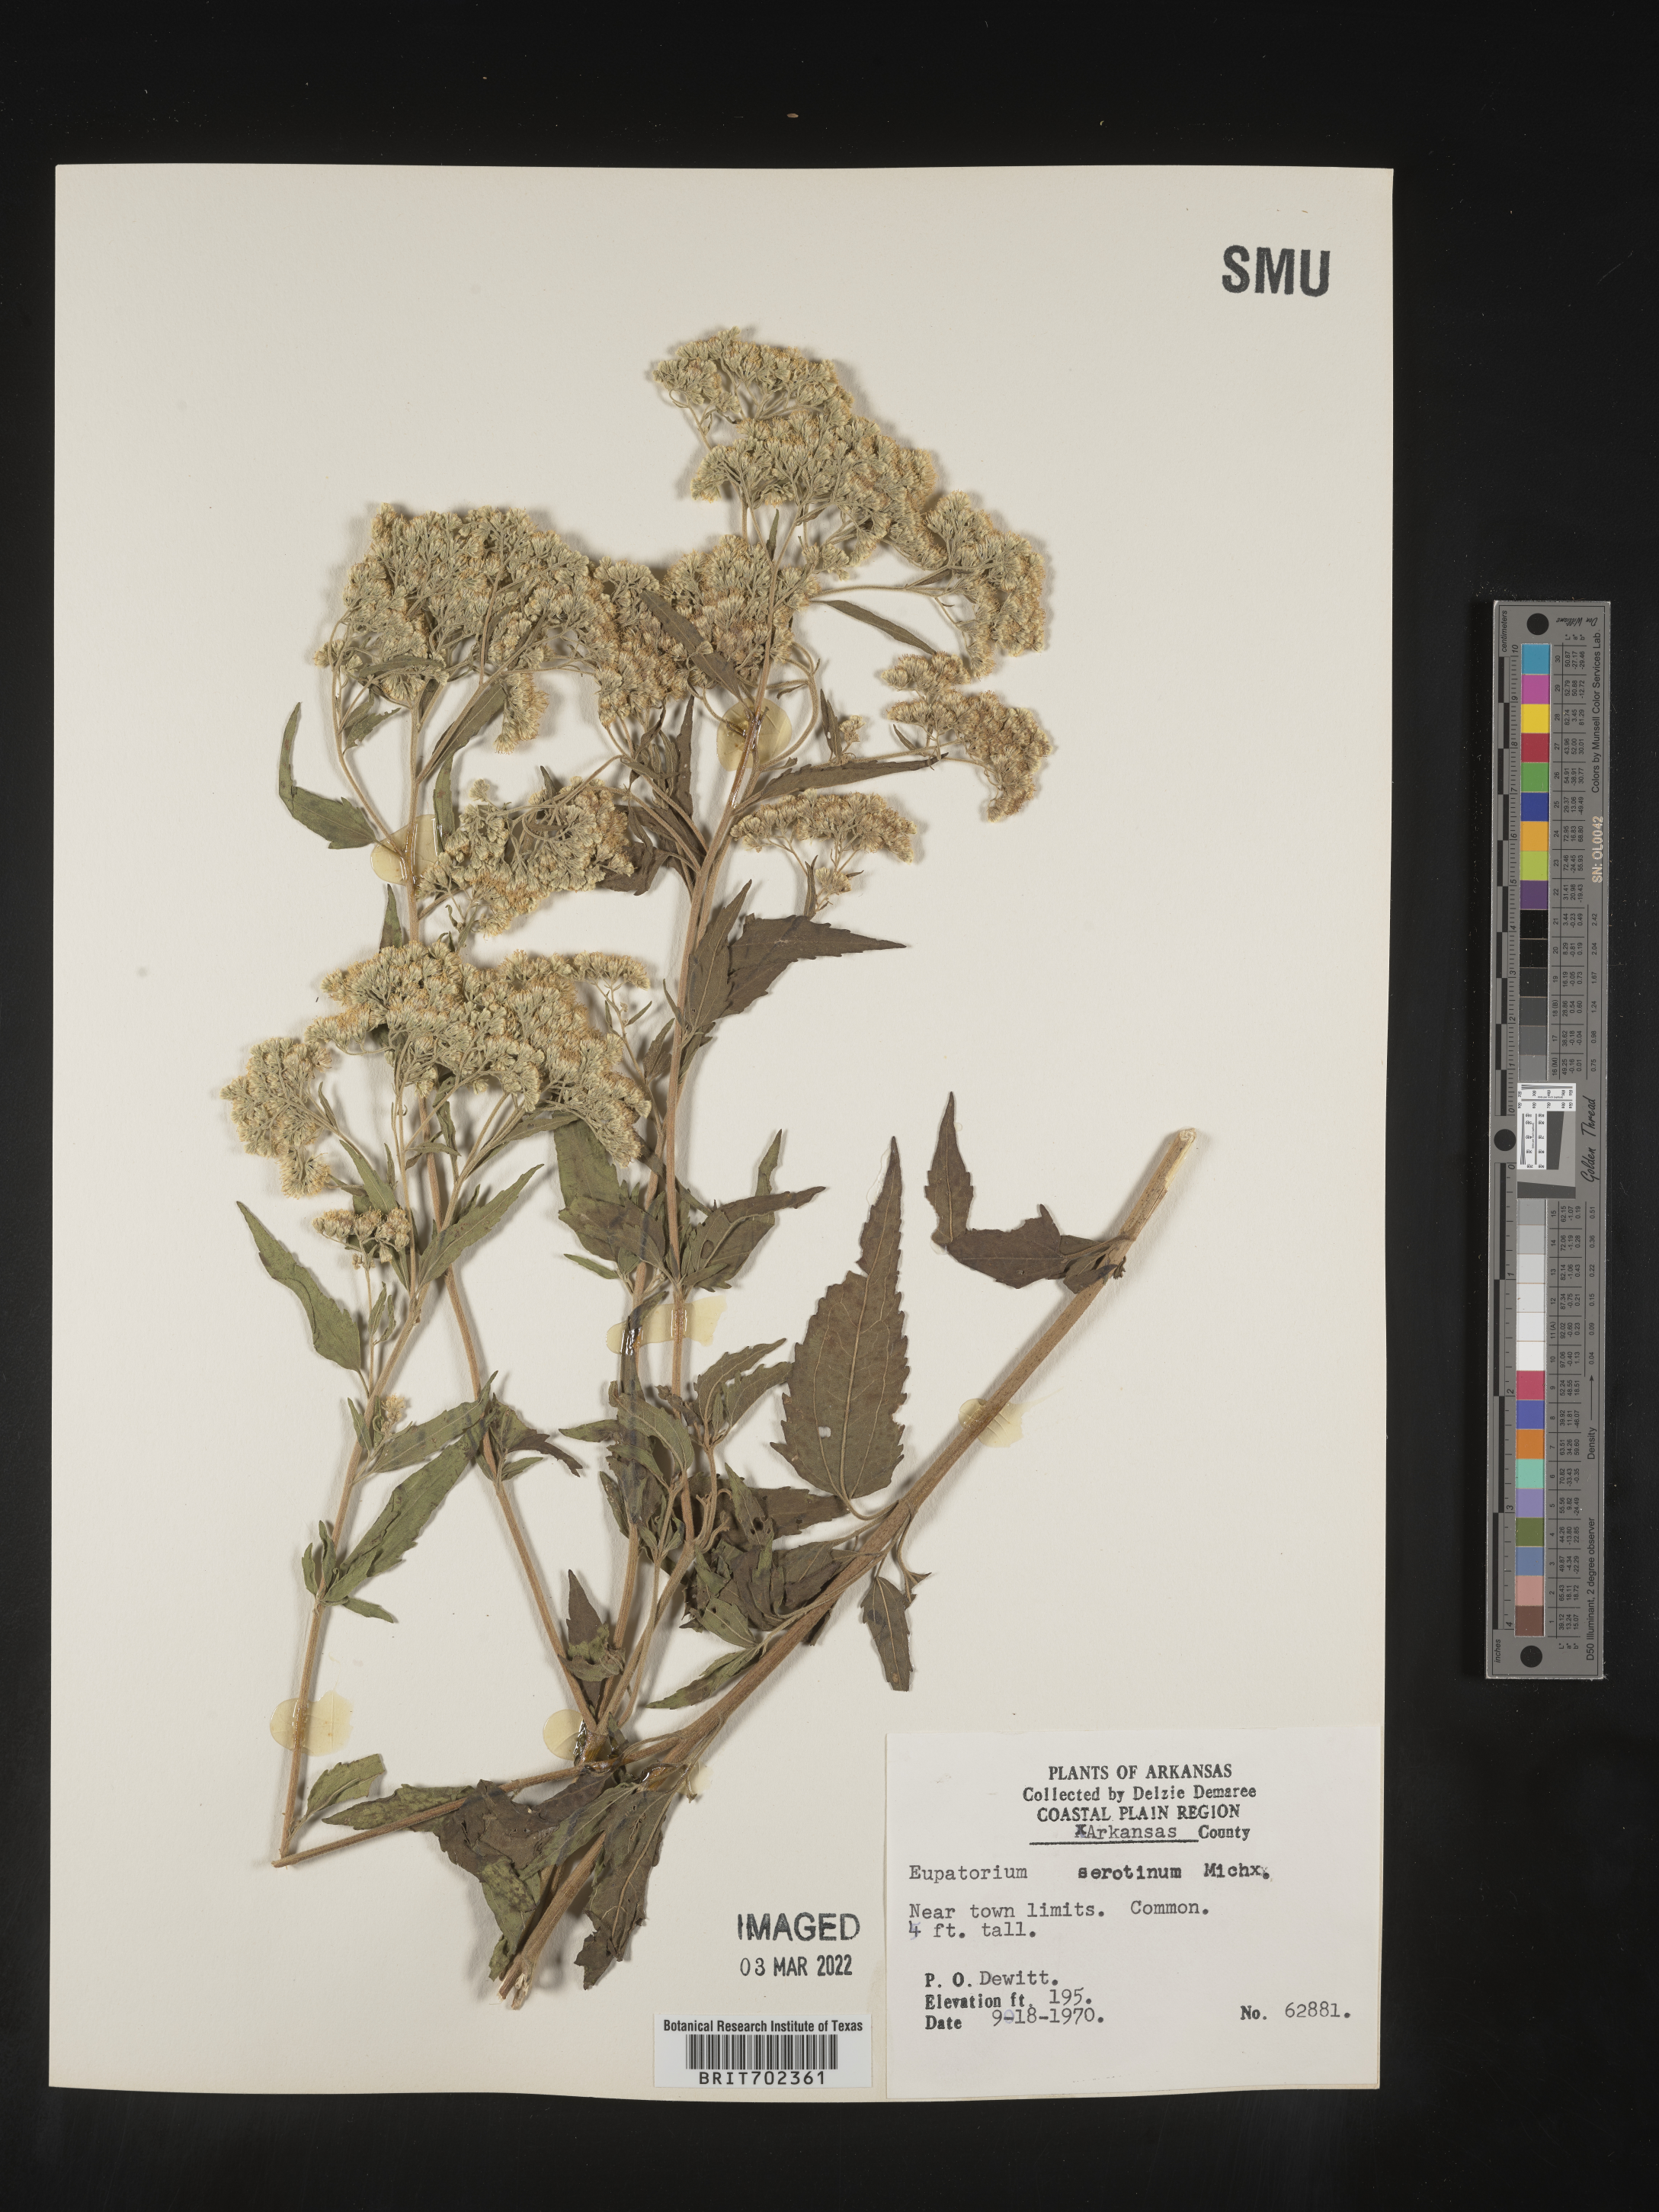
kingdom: Plantae
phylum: Tracheophyta
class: Magnoliopsida
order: Asterales
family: Asteraceae
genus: Eupatorium
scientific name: Eupatorium serotinum
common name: Late boneset
